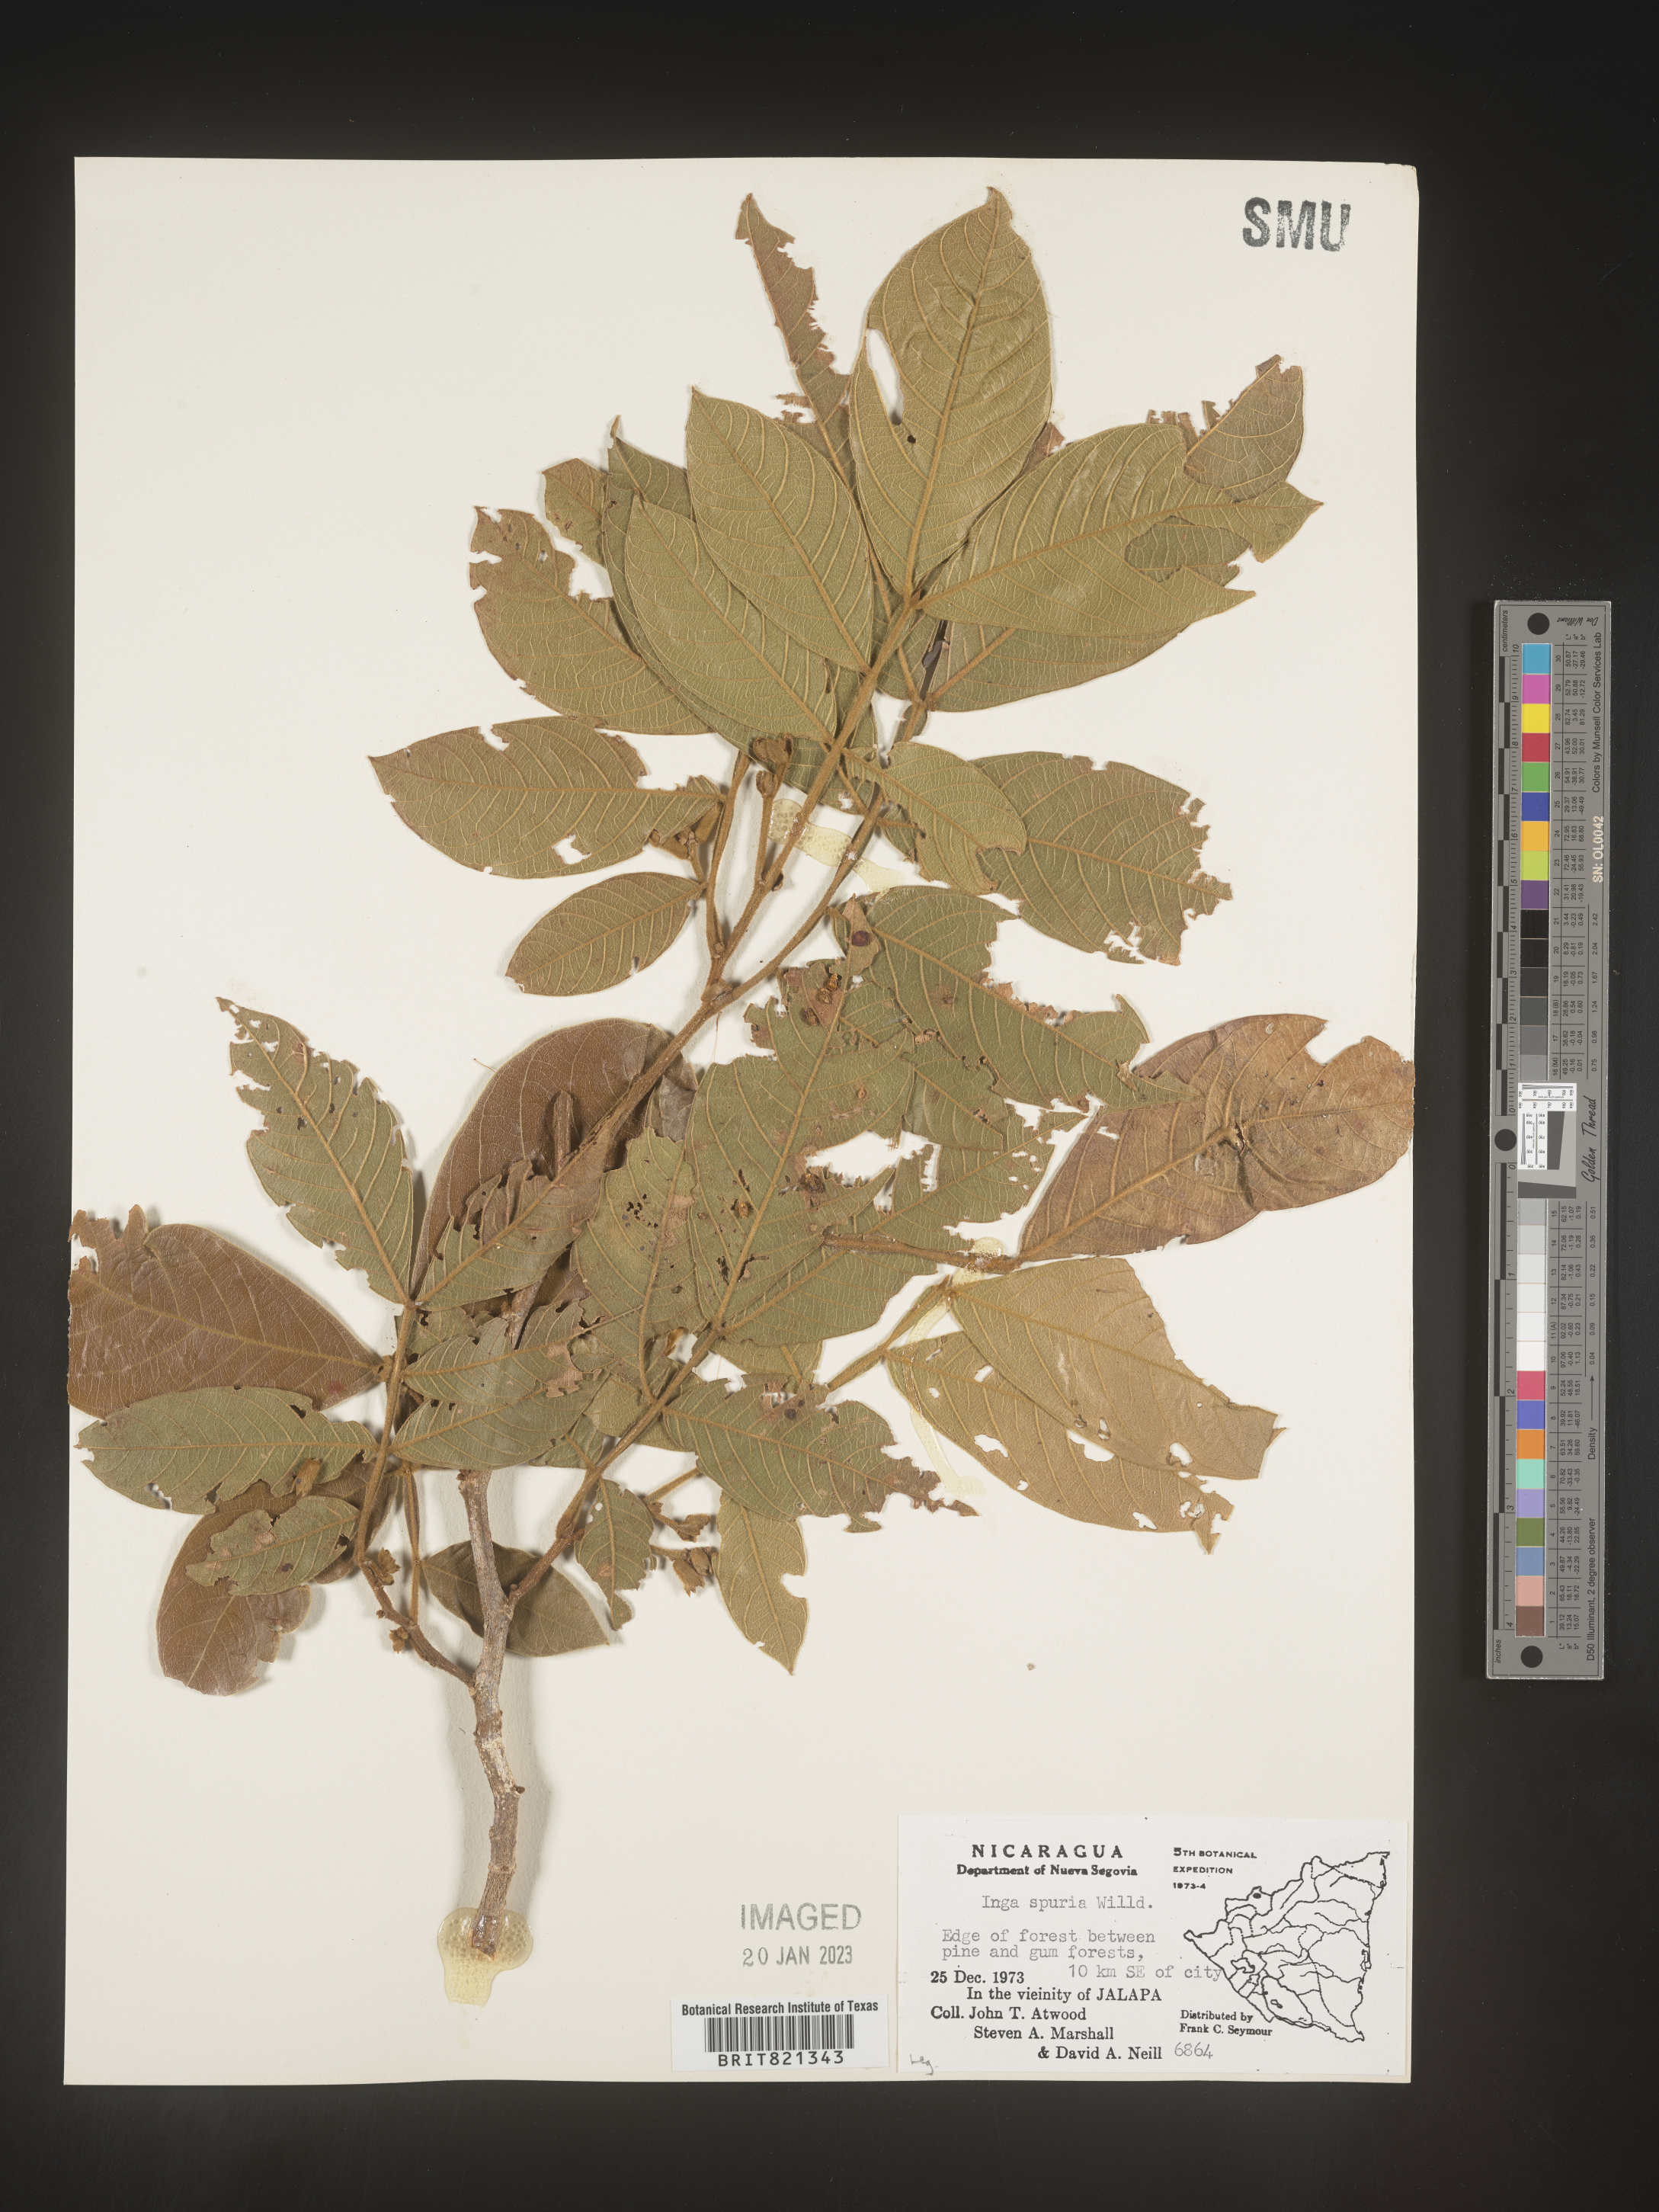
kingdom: Plantae
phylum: Tracheophyta
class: Magnoliopsida
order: Fabales
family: Fabaceae
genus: Inga
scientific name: Inga
